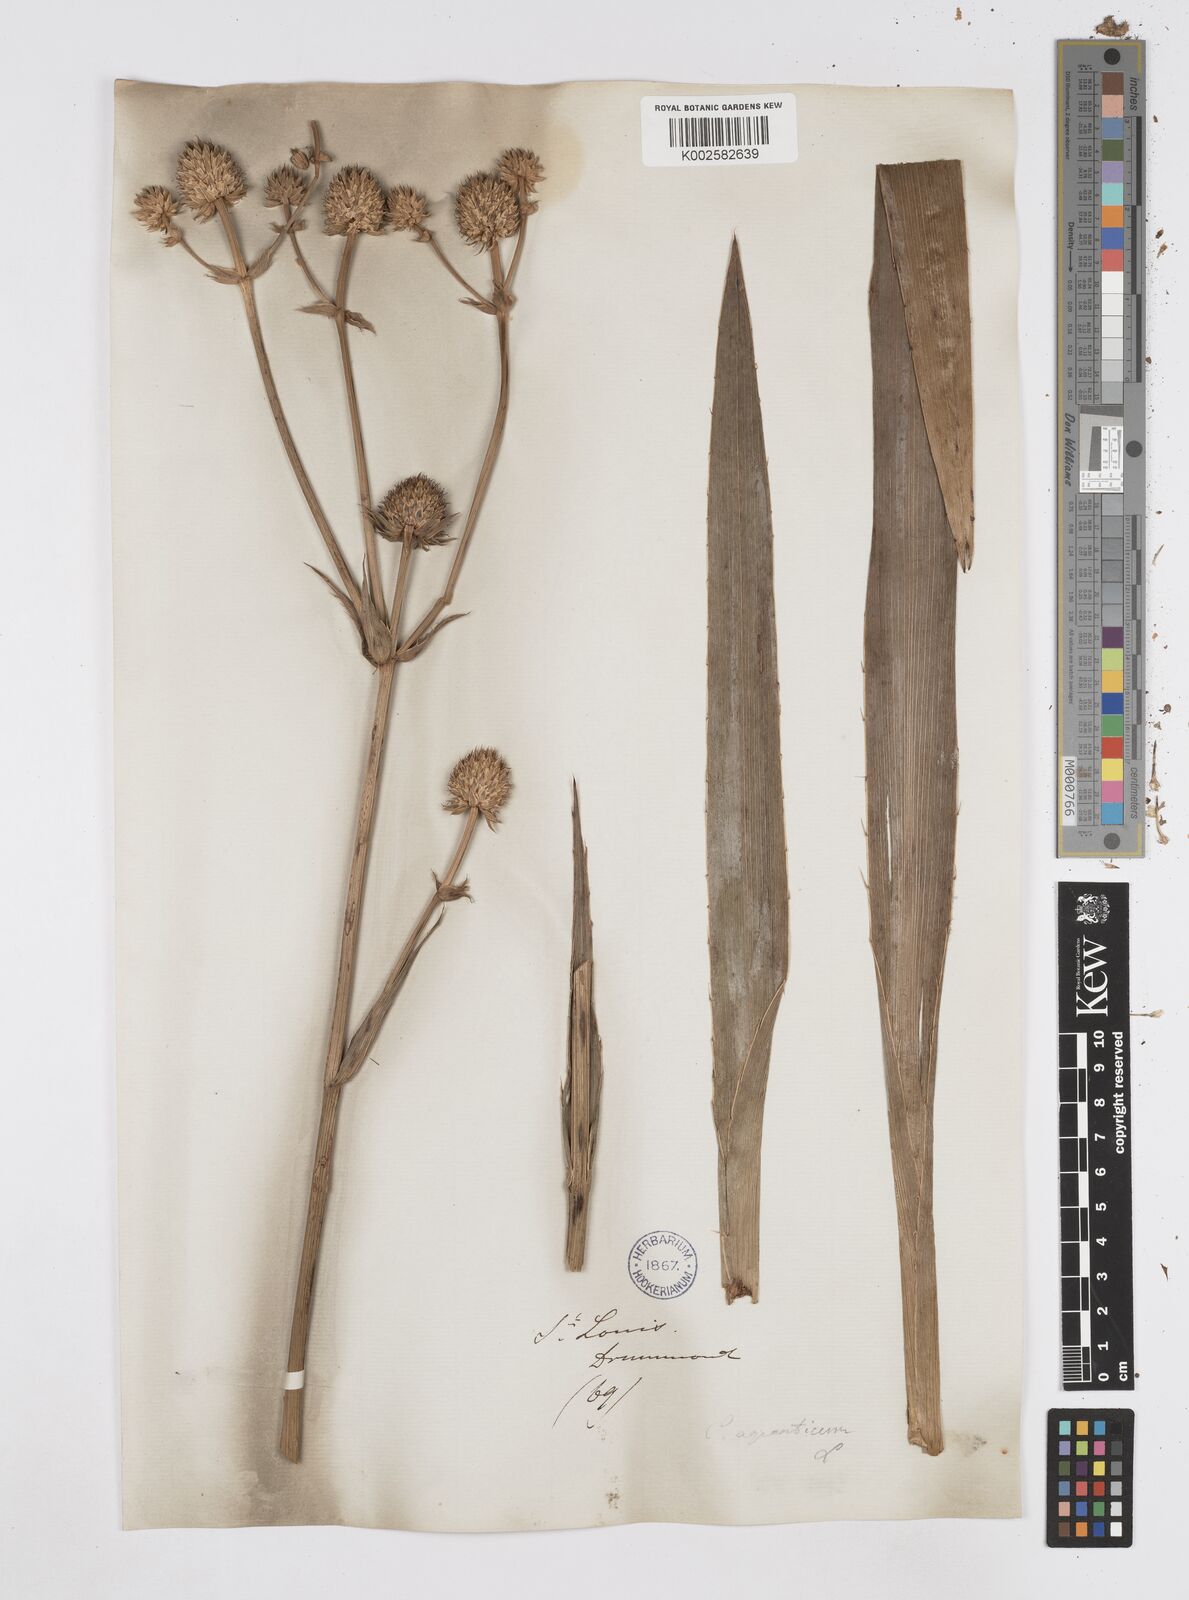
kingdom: Plantae
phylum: Tracheophyta
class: Magnoliopsida
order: Apiales
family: Apiaceae
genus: Eryngium
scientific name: Eryngium yuccifolium
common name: Button eryngo
